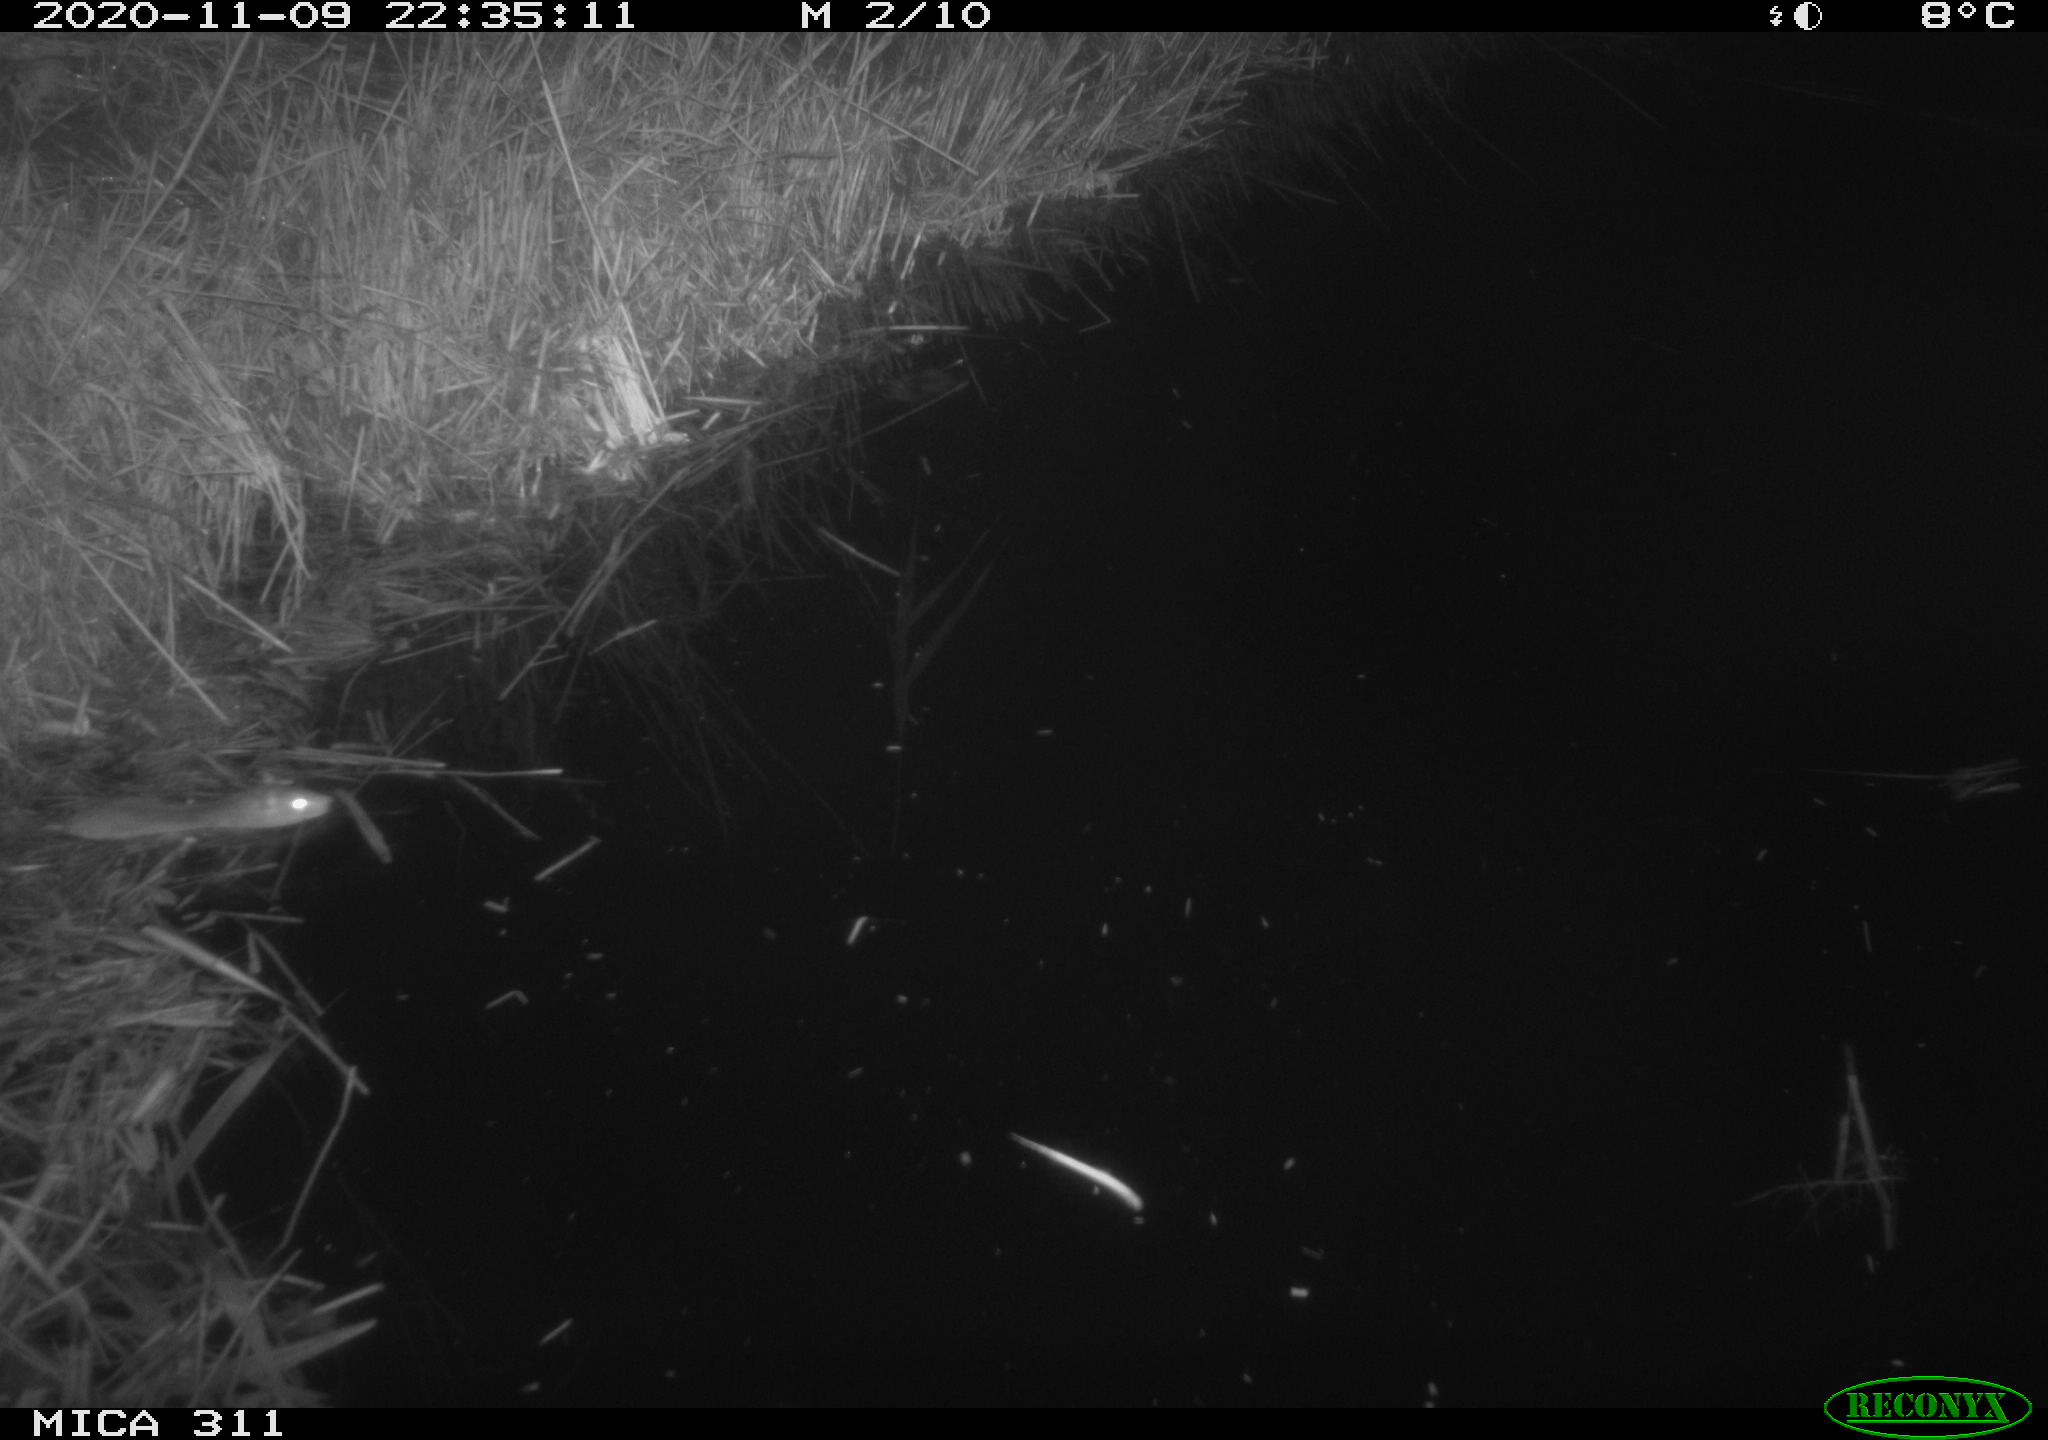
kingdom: Animalia
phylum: Chordata
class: Mammalia
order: Rodentia
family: Muridae
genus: Rattus
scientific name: Rattus norvegicus
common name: Brown rat
